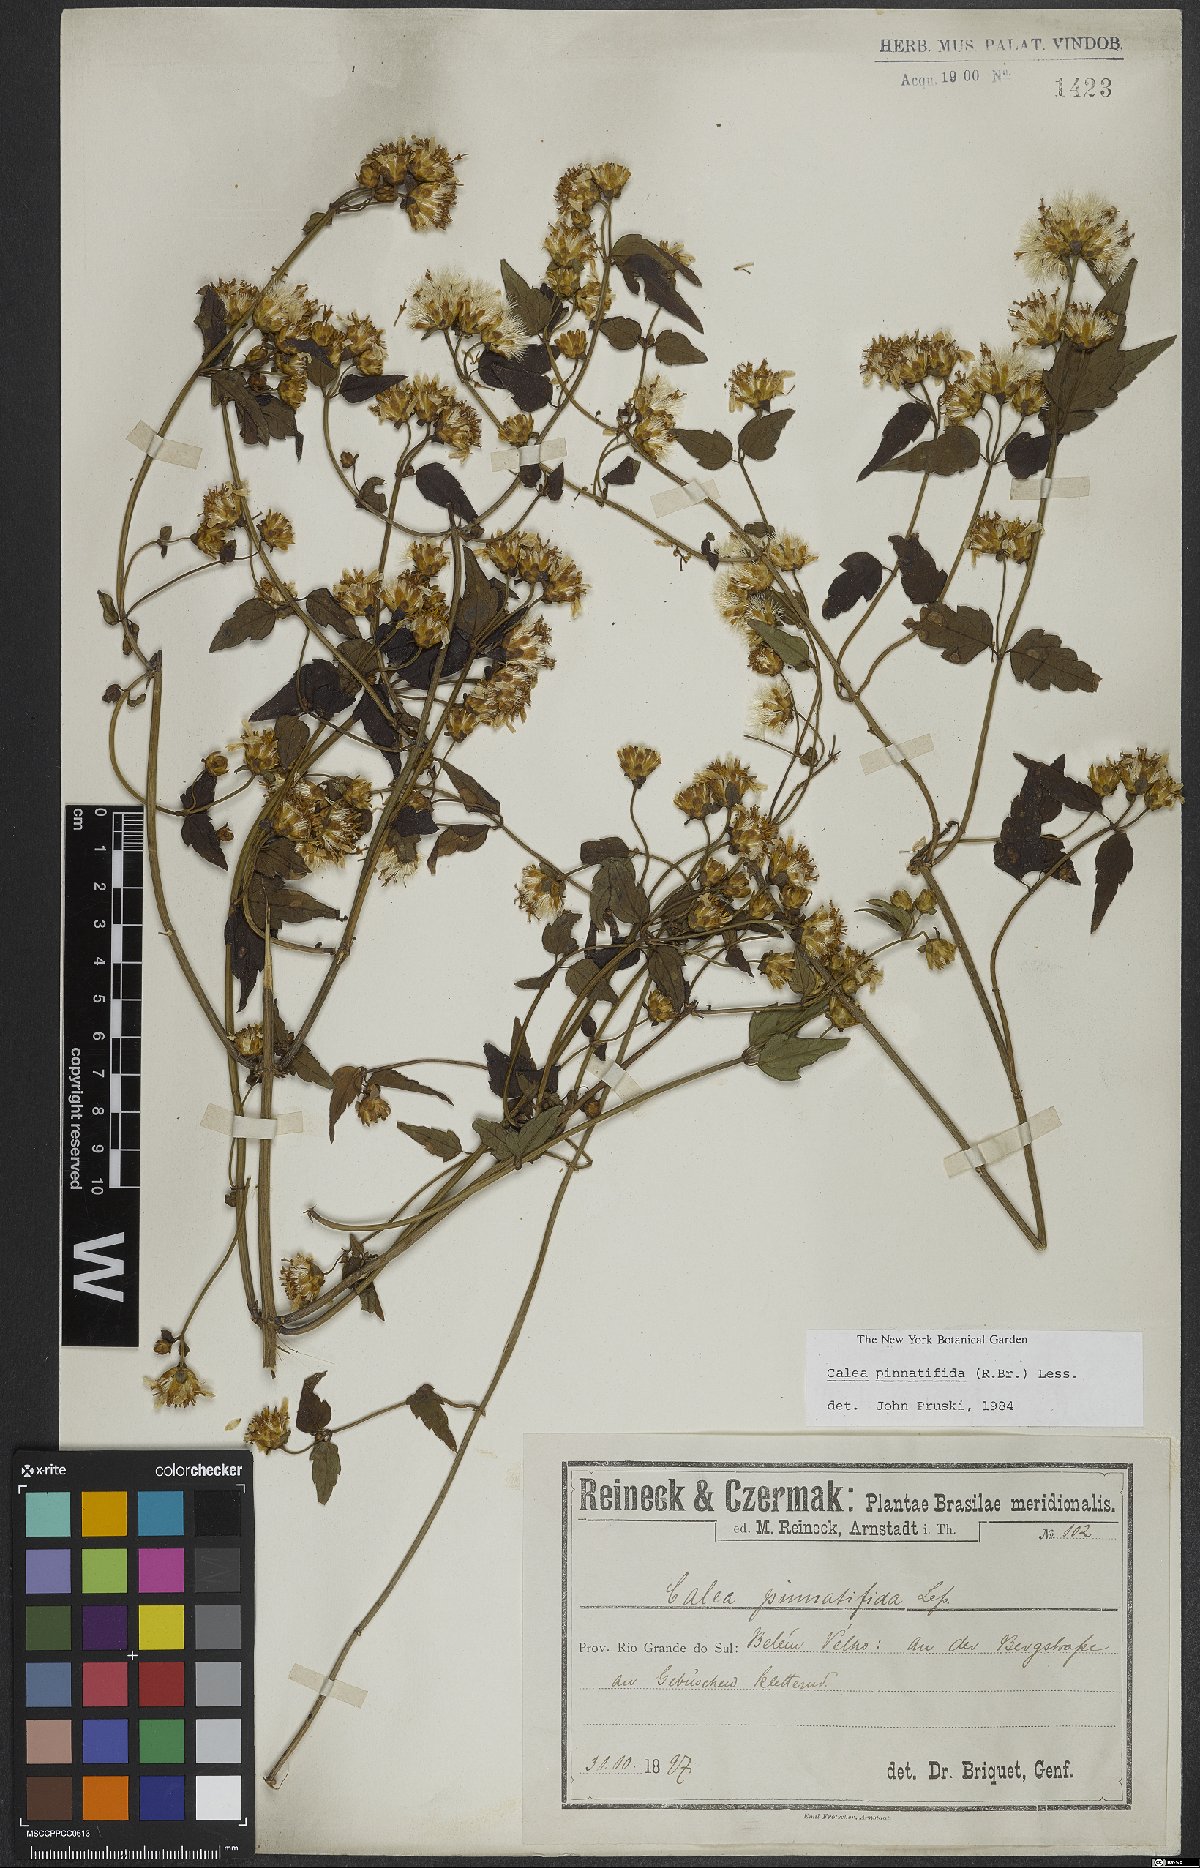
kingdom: Plantae
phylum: Tracheophyta
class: Magnoliopsida
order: Asterales
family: Asteraceae
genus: Calea
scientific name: Calea pinnatifida
